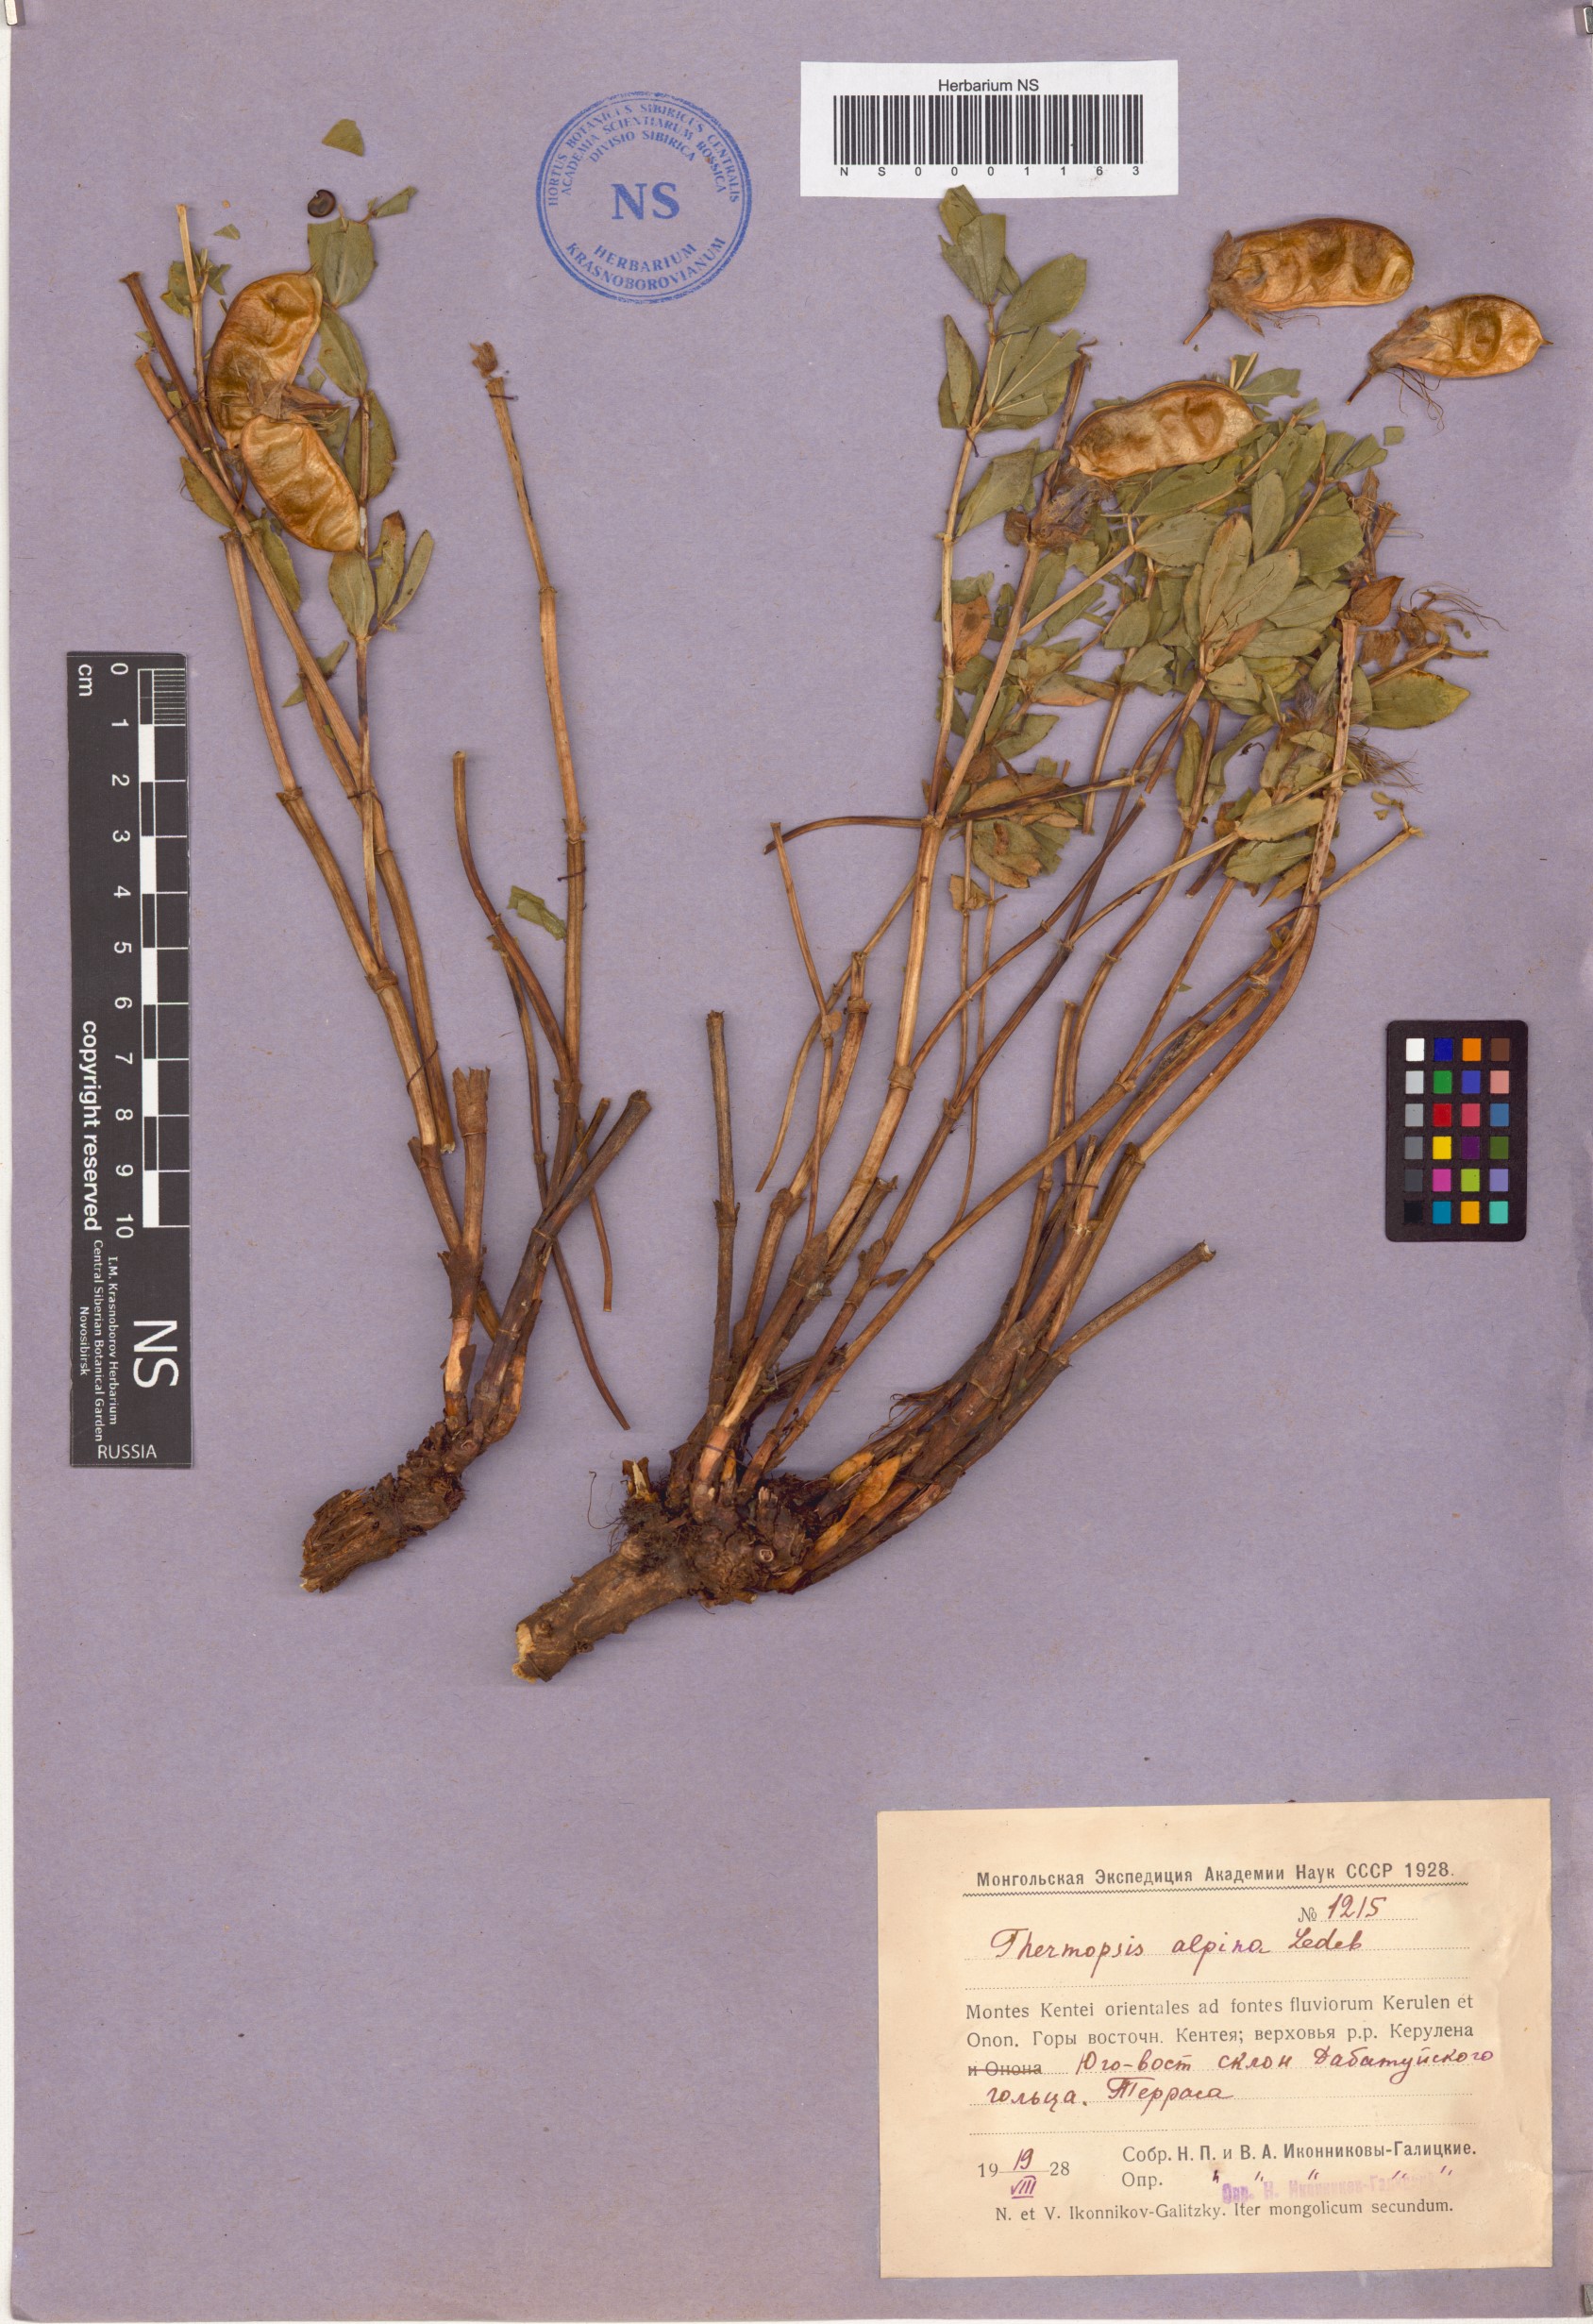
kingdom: Plantae
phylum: Tracheophyta
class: Magnoliopsida
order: Fabales
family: Fabaceae
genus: Thermopsis
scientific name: Thermopsis alpina
